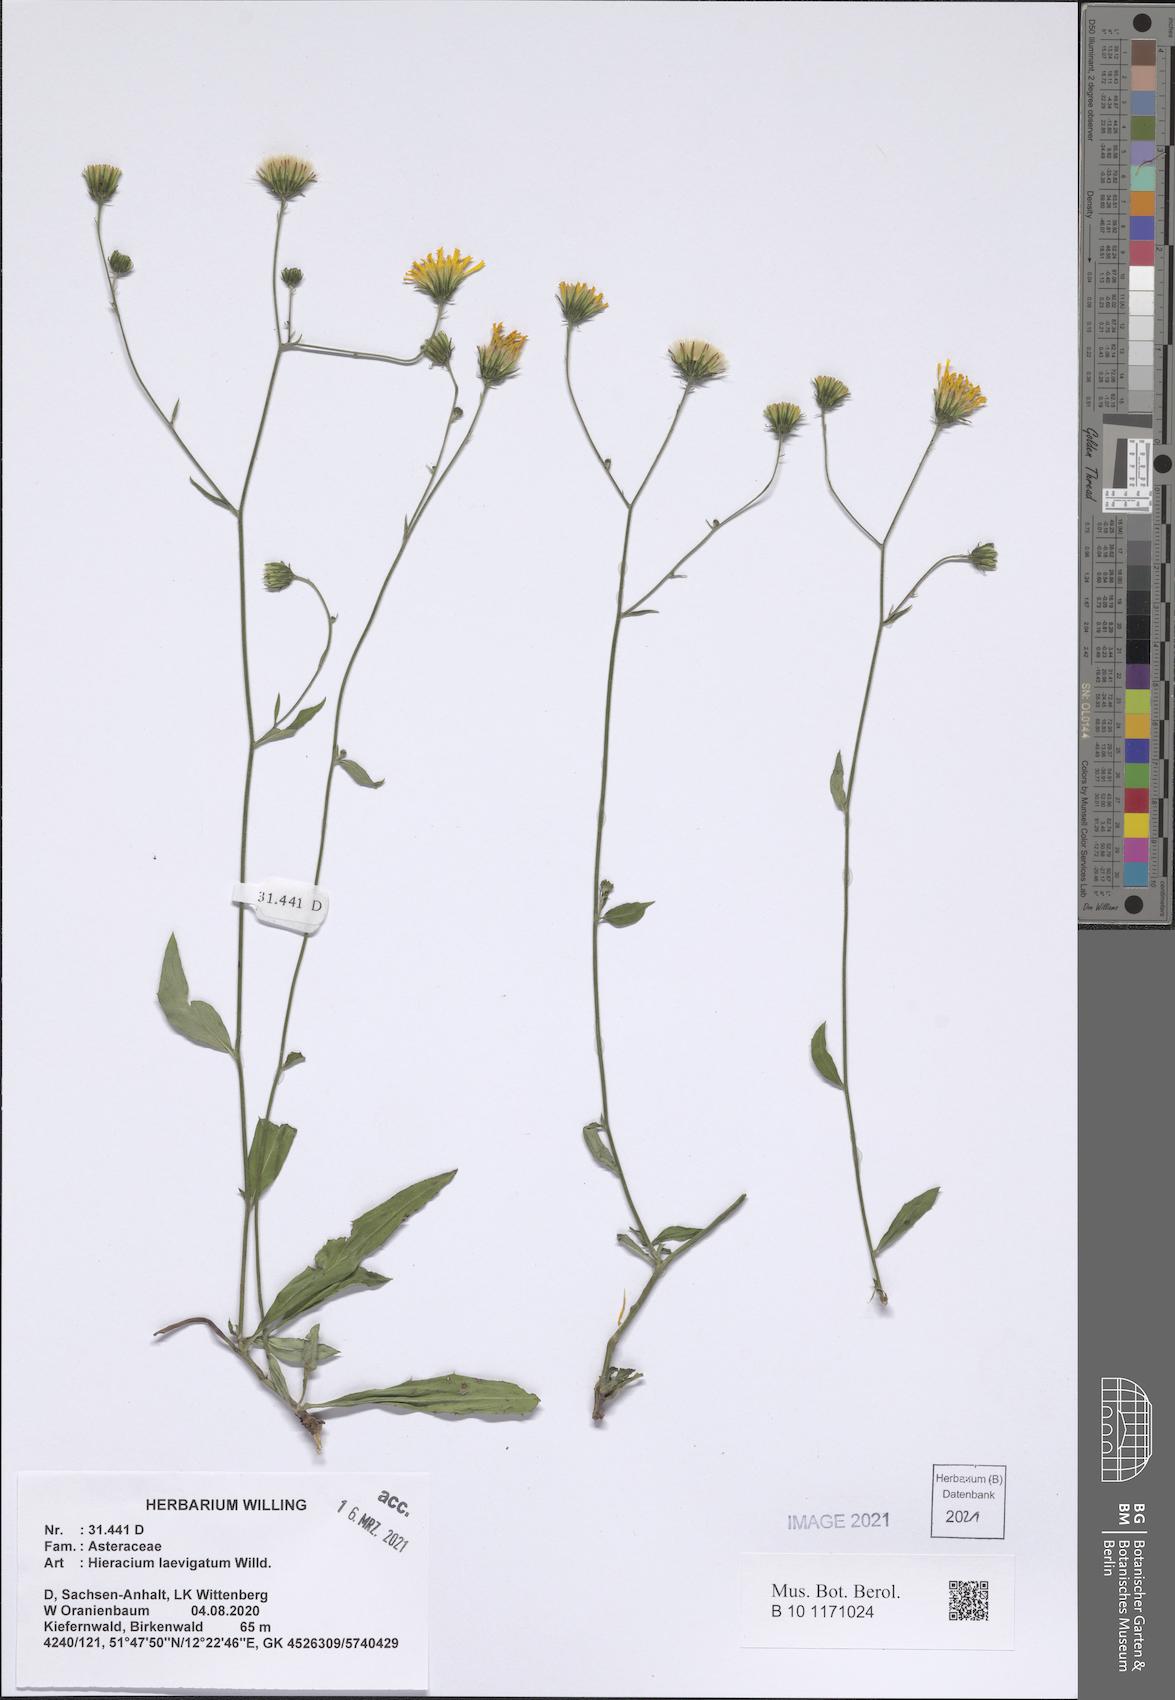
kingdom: Plantae
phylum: Tracheophyta
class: Magnoliopsida
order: Asterales
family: Asteraceae
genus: Hieracium
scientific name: Hieracium laevigatum
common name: Smooth hawkweed
